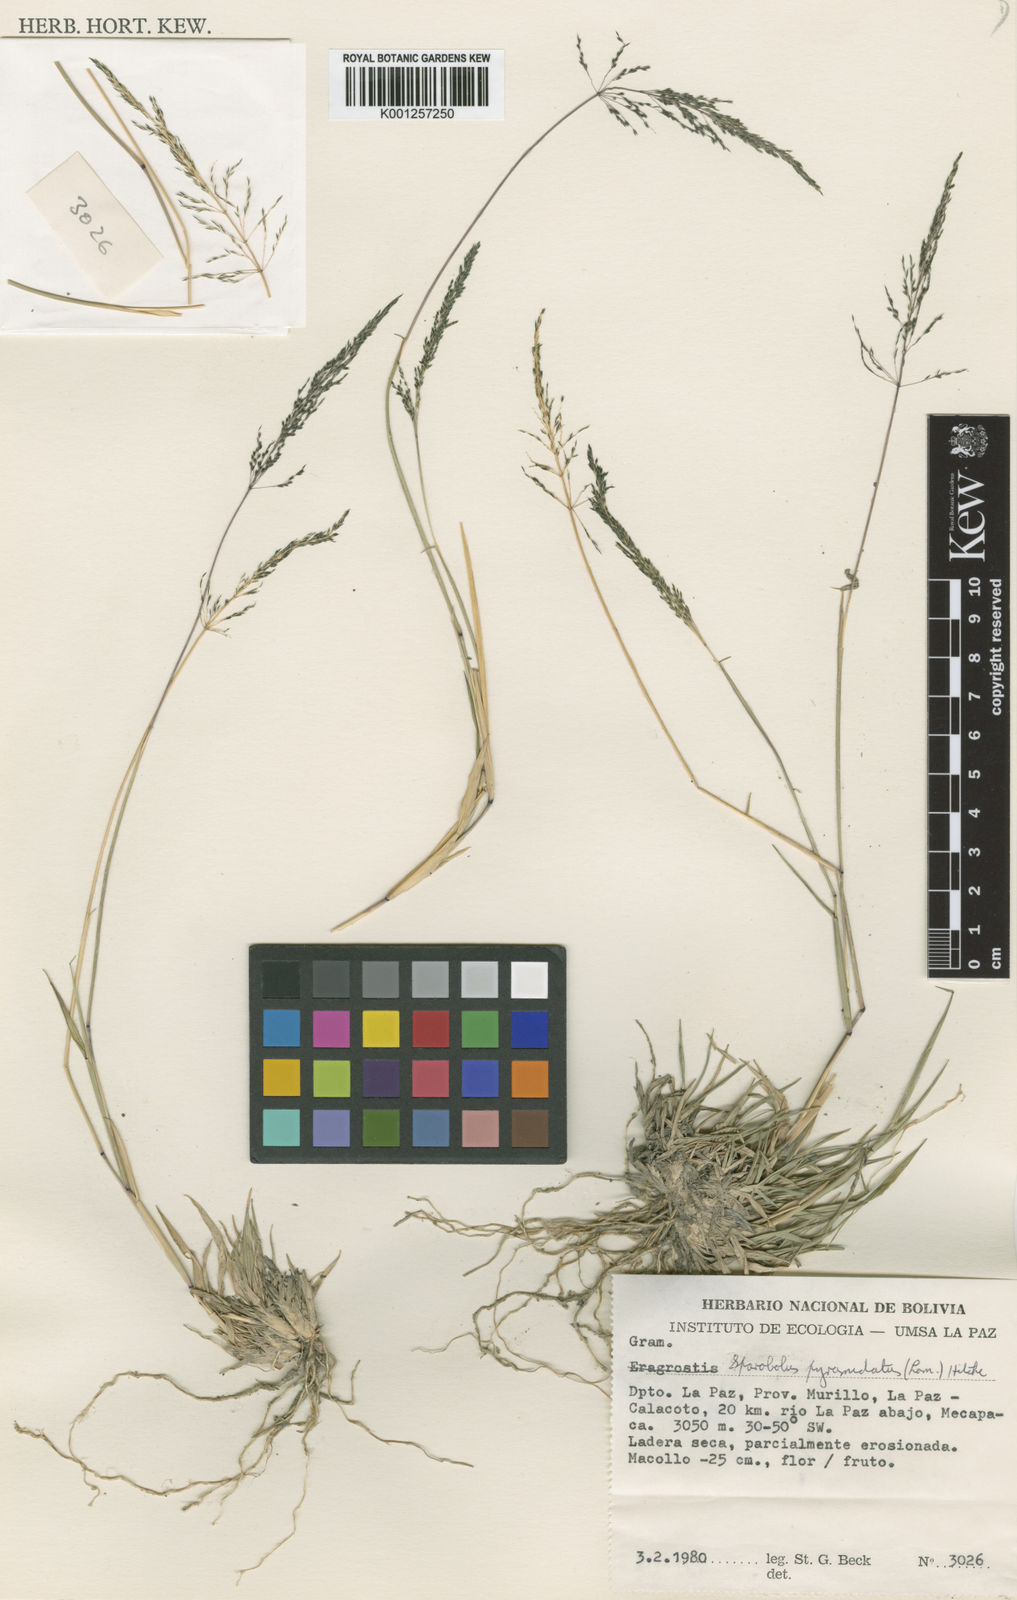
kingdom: Plantae
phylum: Tracheophyta
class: Liliopsida
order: Poales
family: Poaceae
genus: Sporobolus
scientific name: Sporobolus pyramidatus
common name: Whorled dropseed
